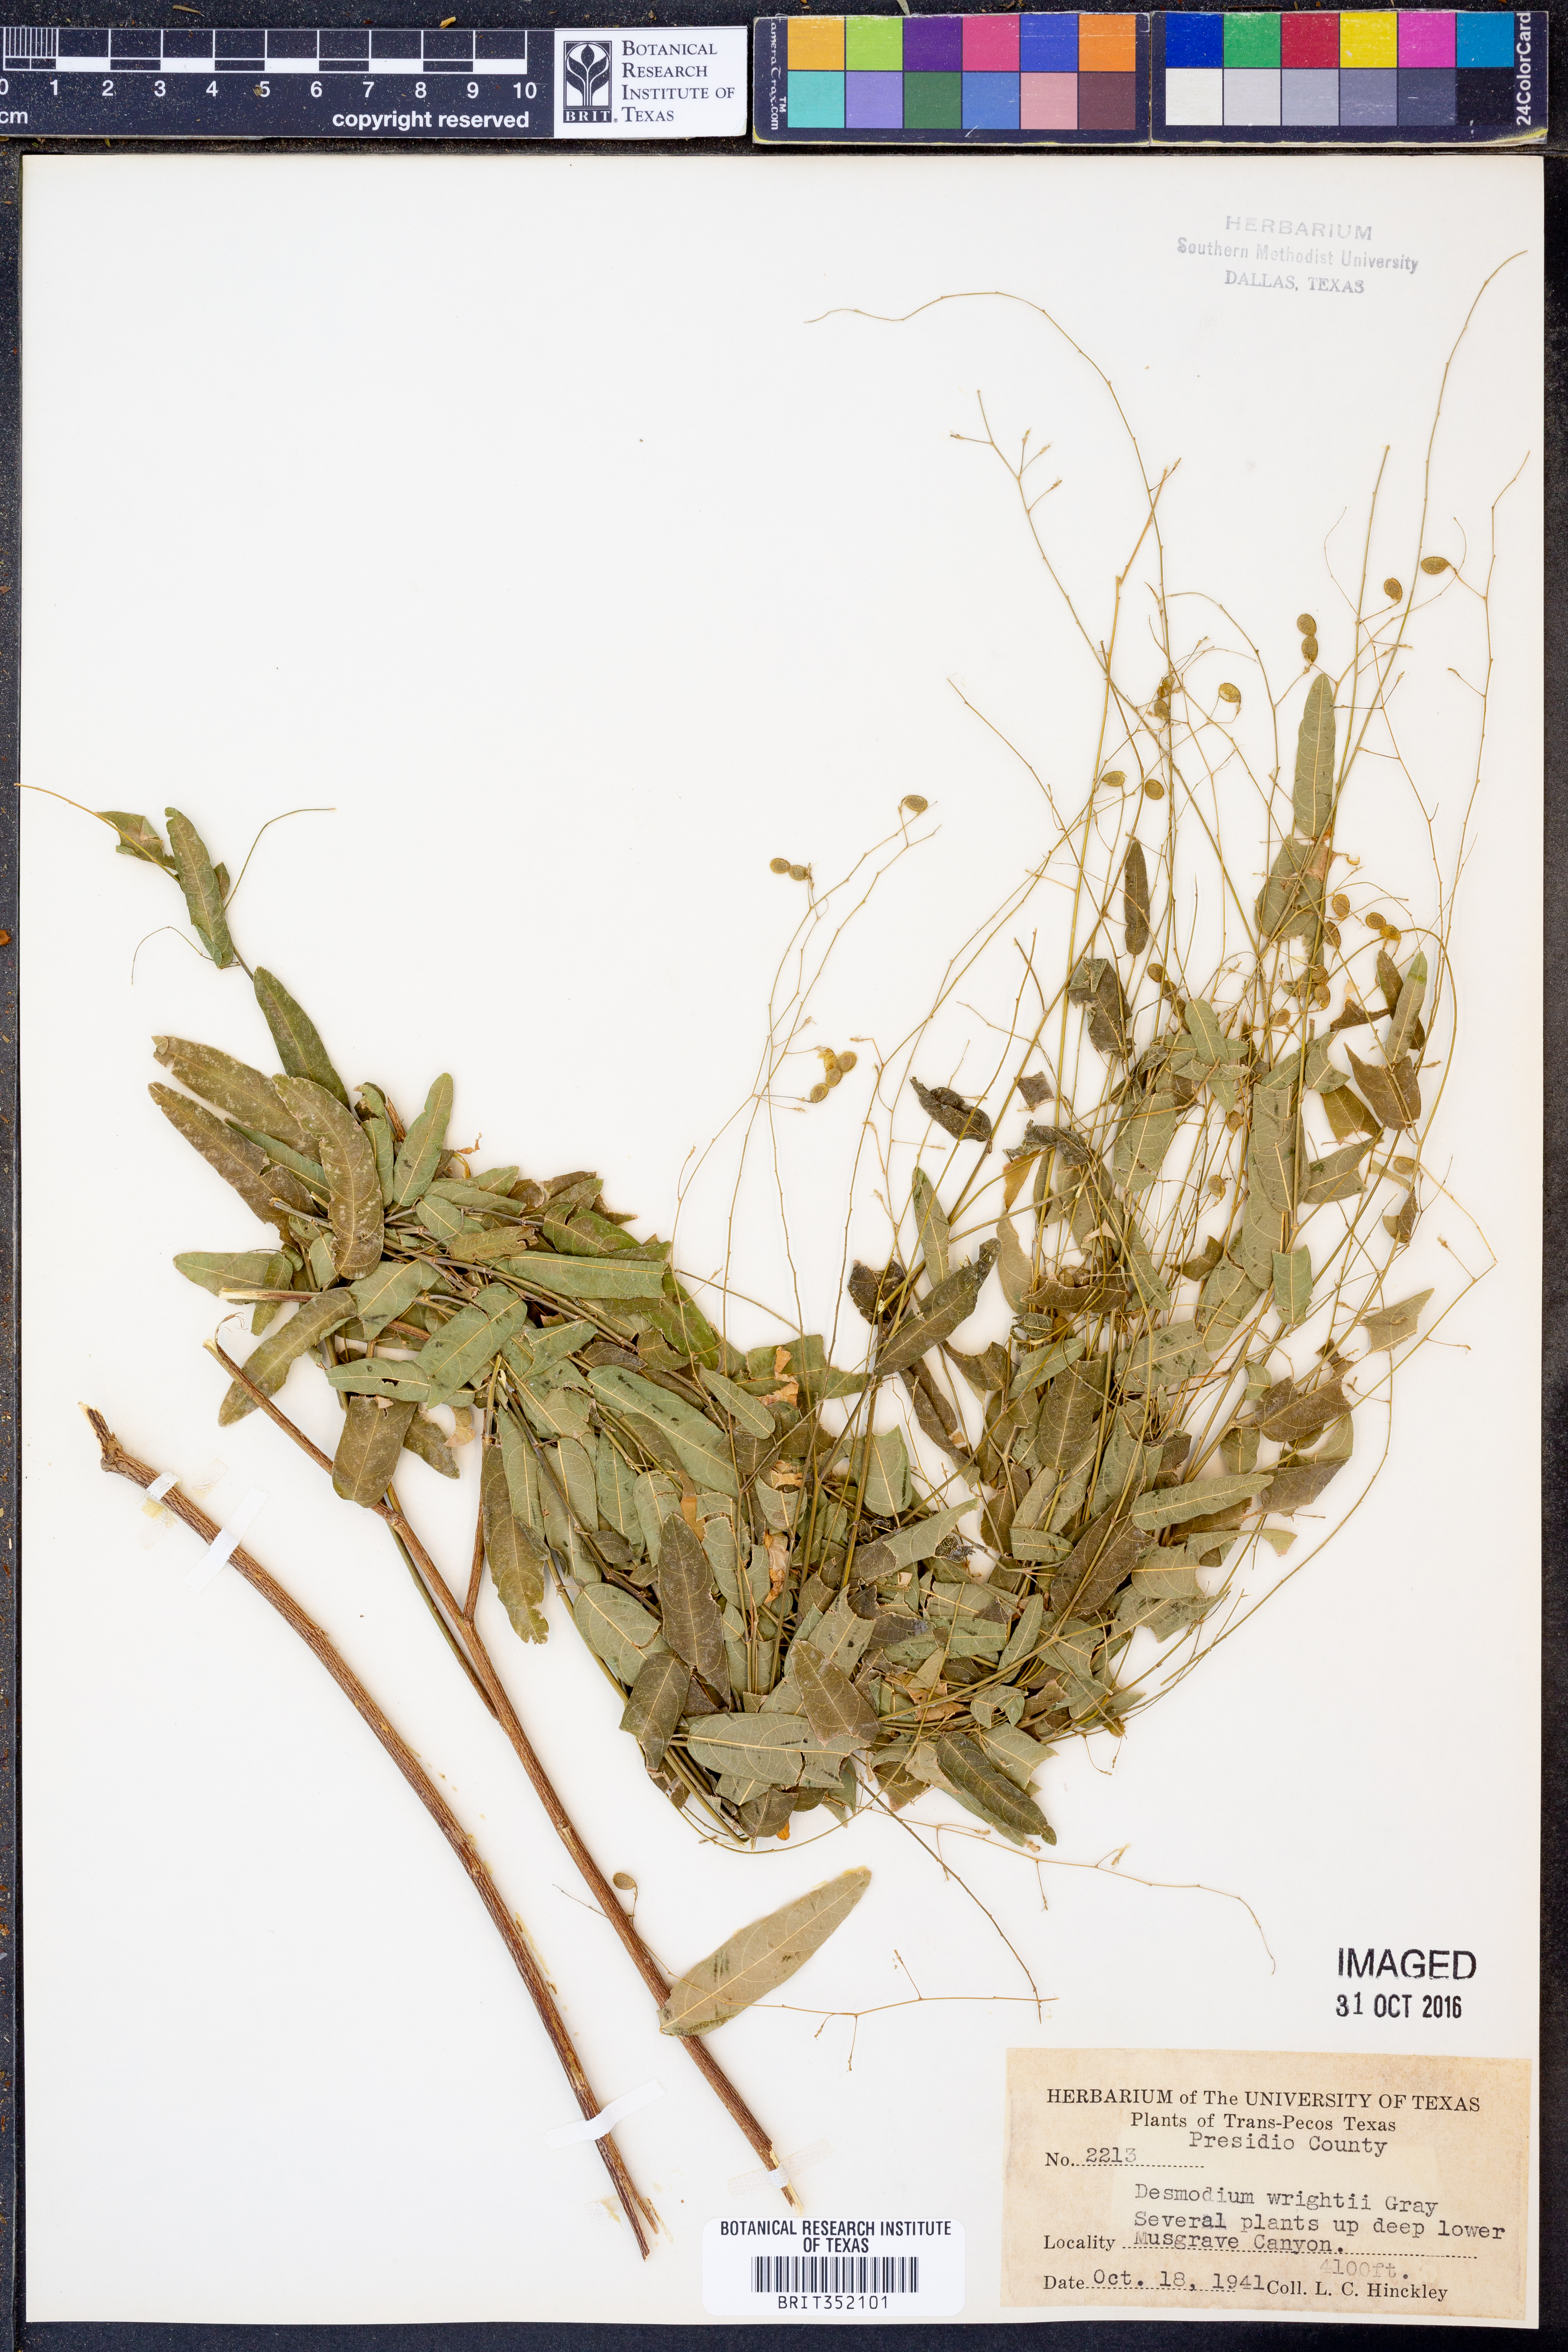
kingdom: Plantae
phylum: Tracheophyta
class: Magnoliopsida
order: Fabales
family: Fabaceae
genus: Desmodium
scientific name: Desmodium psilophyllum
